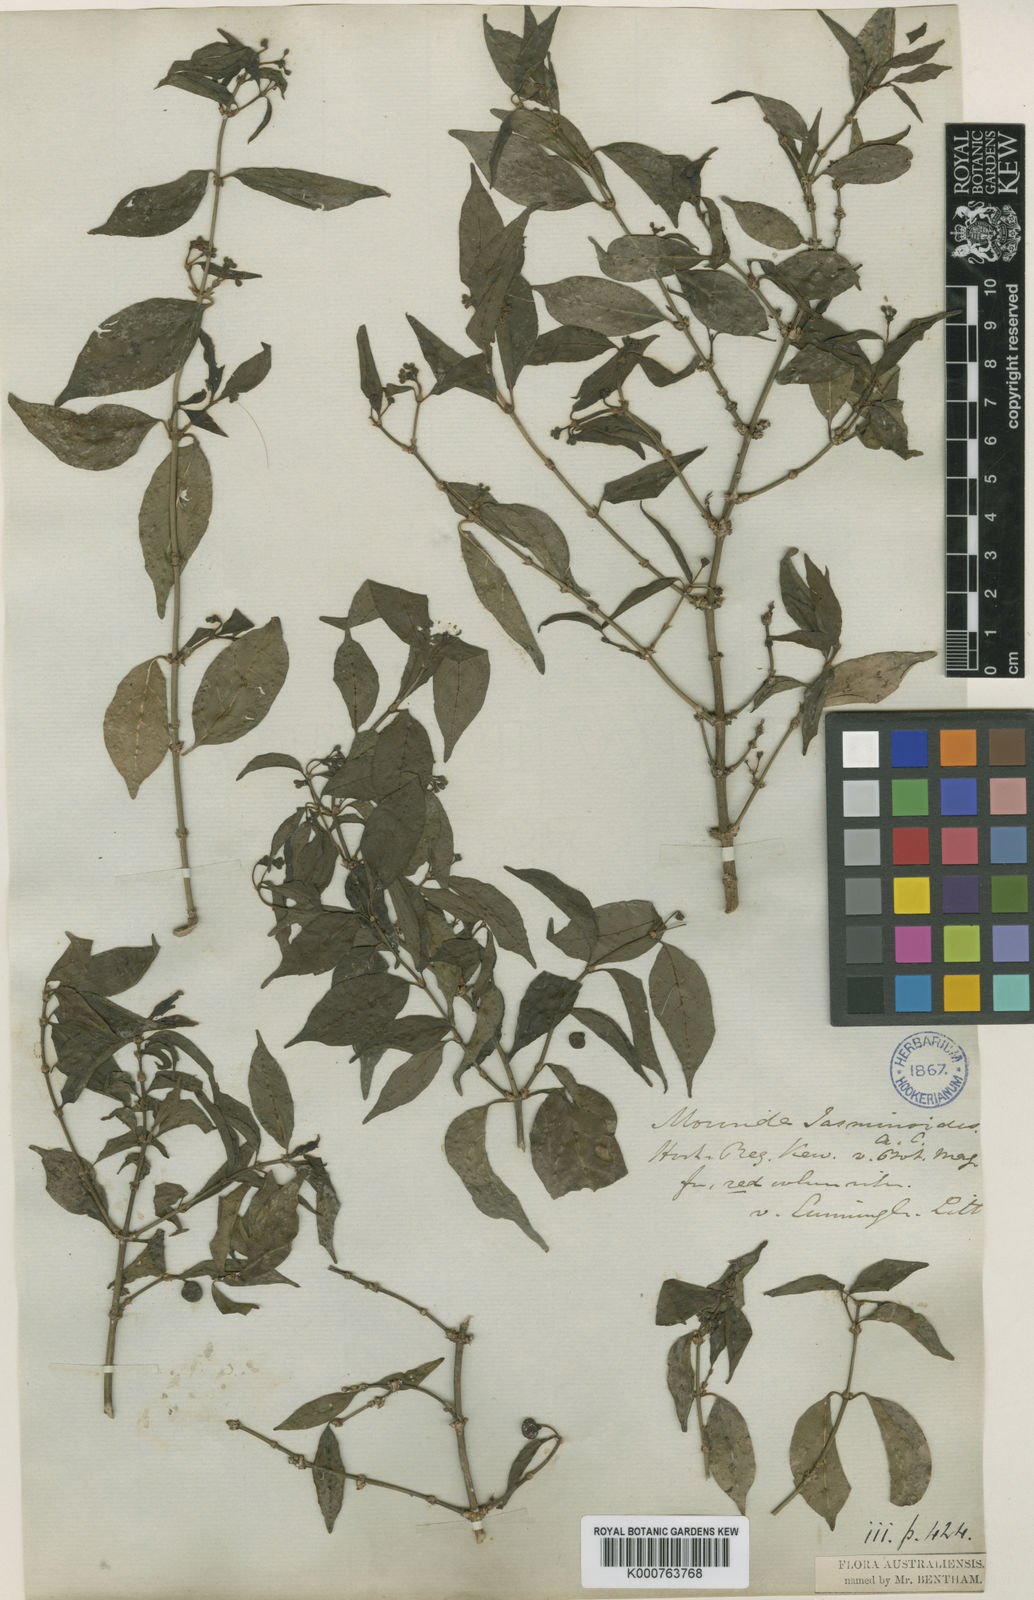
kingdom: Plantae
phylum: Tracheophyta
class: Magnoliopsida
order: Gentianales
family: Rubiaceae
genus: Gynochthodes
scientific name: Gynochthodes jasminoides
